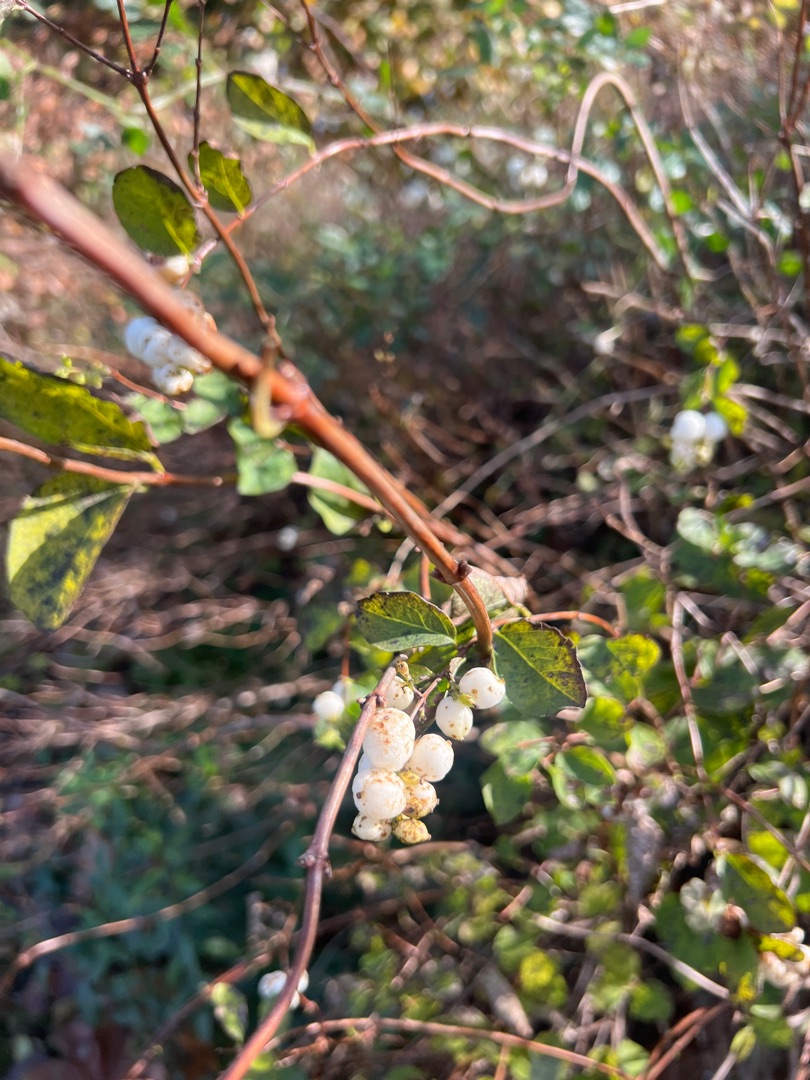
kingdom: Plantae
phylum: Tracheophyta
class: Magnoliopsida
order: Dipsacales
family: Caprifoliaceae
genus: Symphoricarpos
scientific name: Symphoricarpos albus
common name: Almindelig snebær
